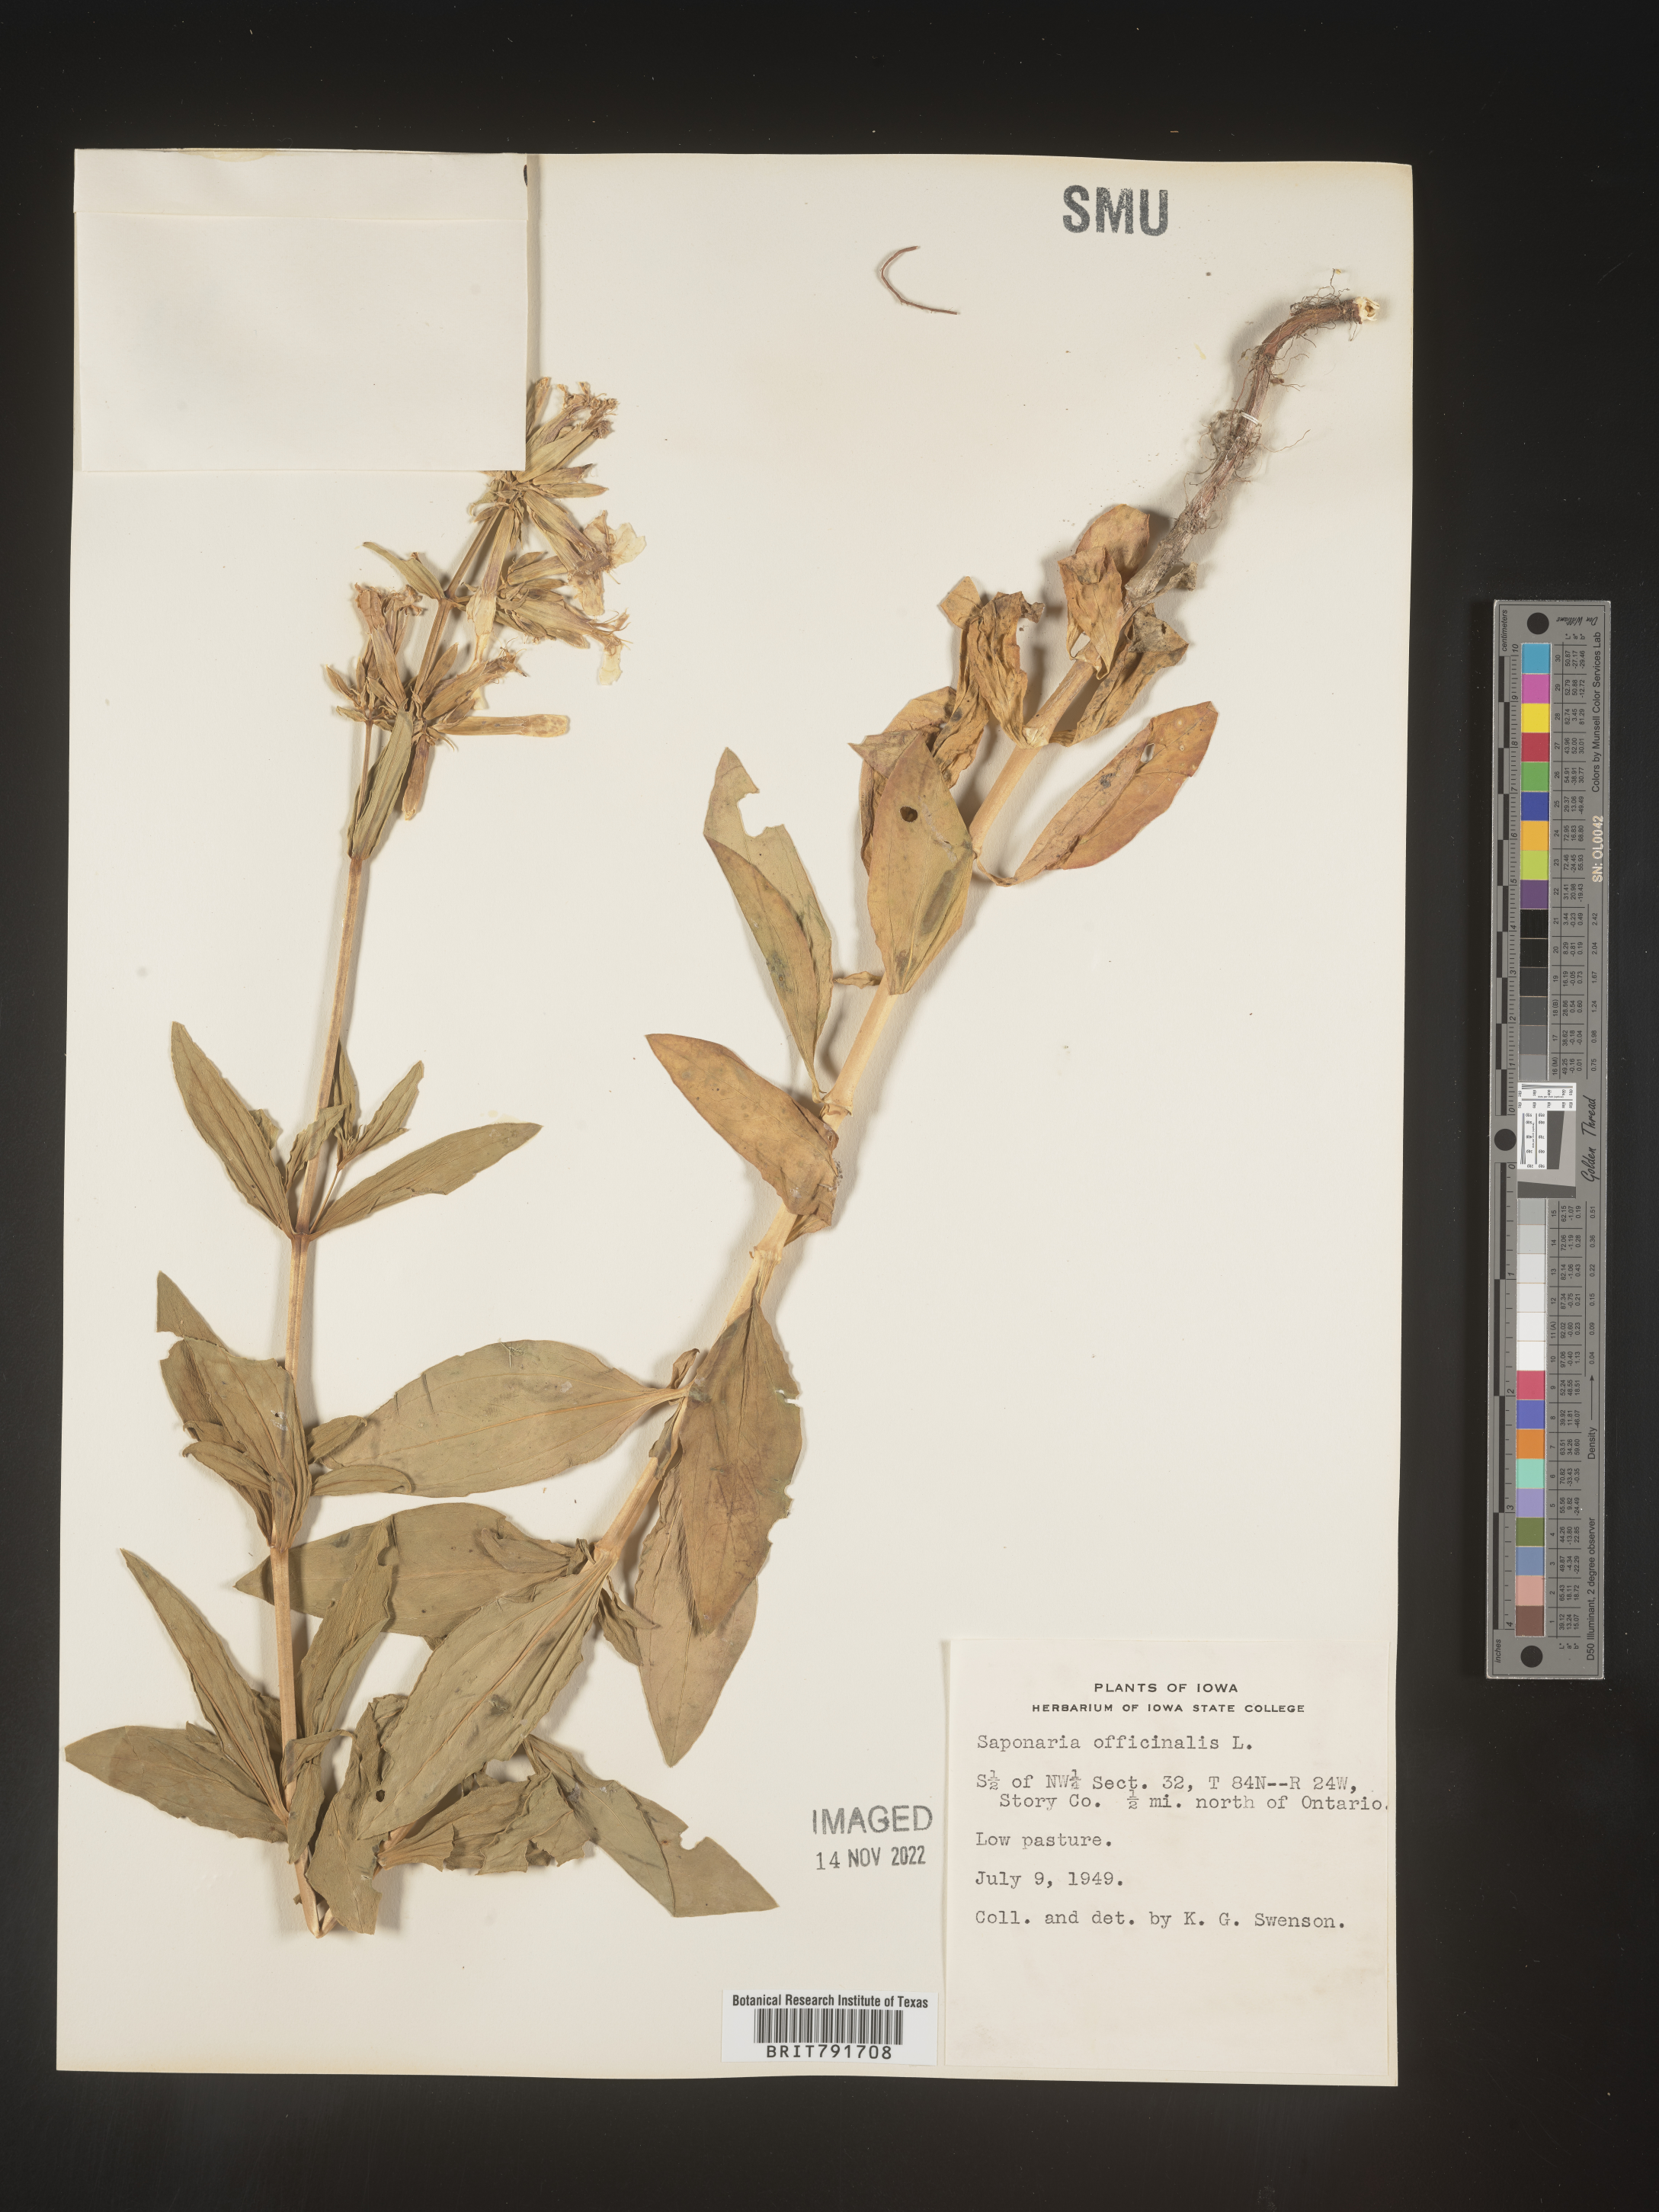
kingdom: Plantae
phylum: Tracheophyta
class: Magnoliopsida
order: Caryophyllales
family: Caryophyllaceae
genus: Saponaria
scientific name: Saponaria officinalis
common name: Soapwort
